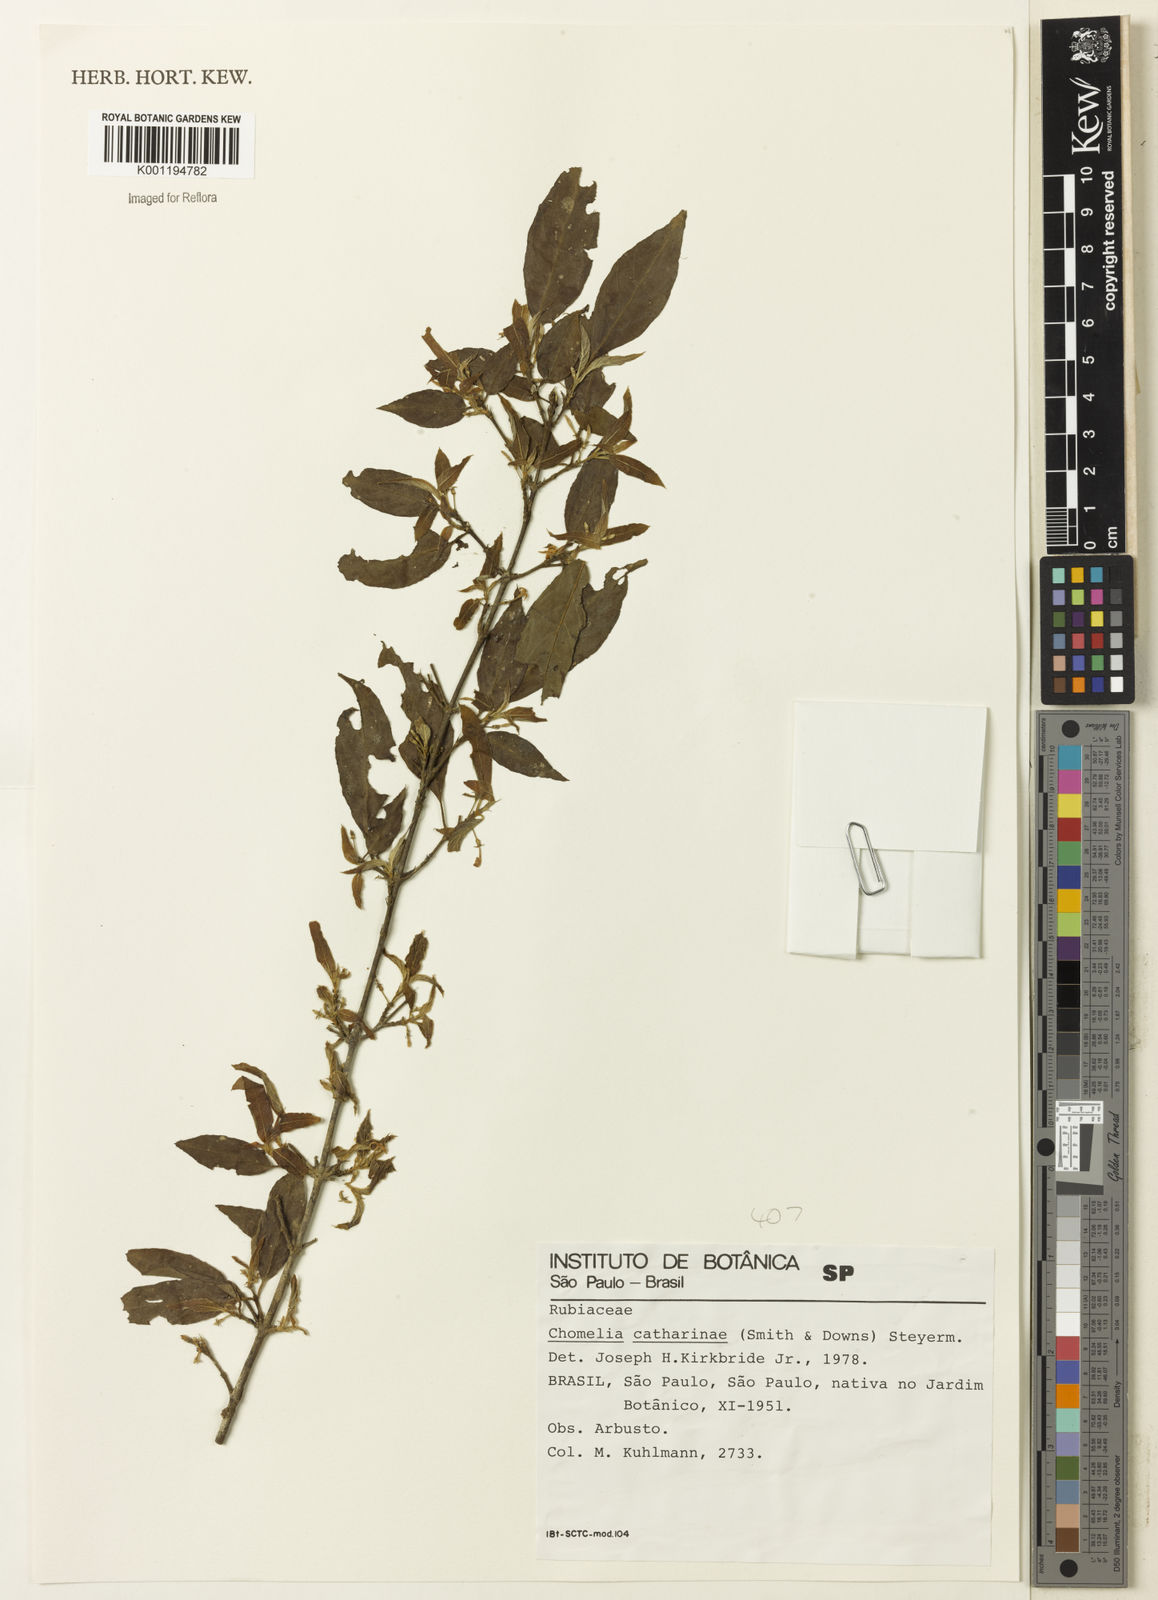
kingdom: Plantae
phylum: Tracheophyta
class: Magnoliopsida
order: Gentianales
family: Rubiaceae
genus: Chomelia
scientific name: Chomelia parvifolia
